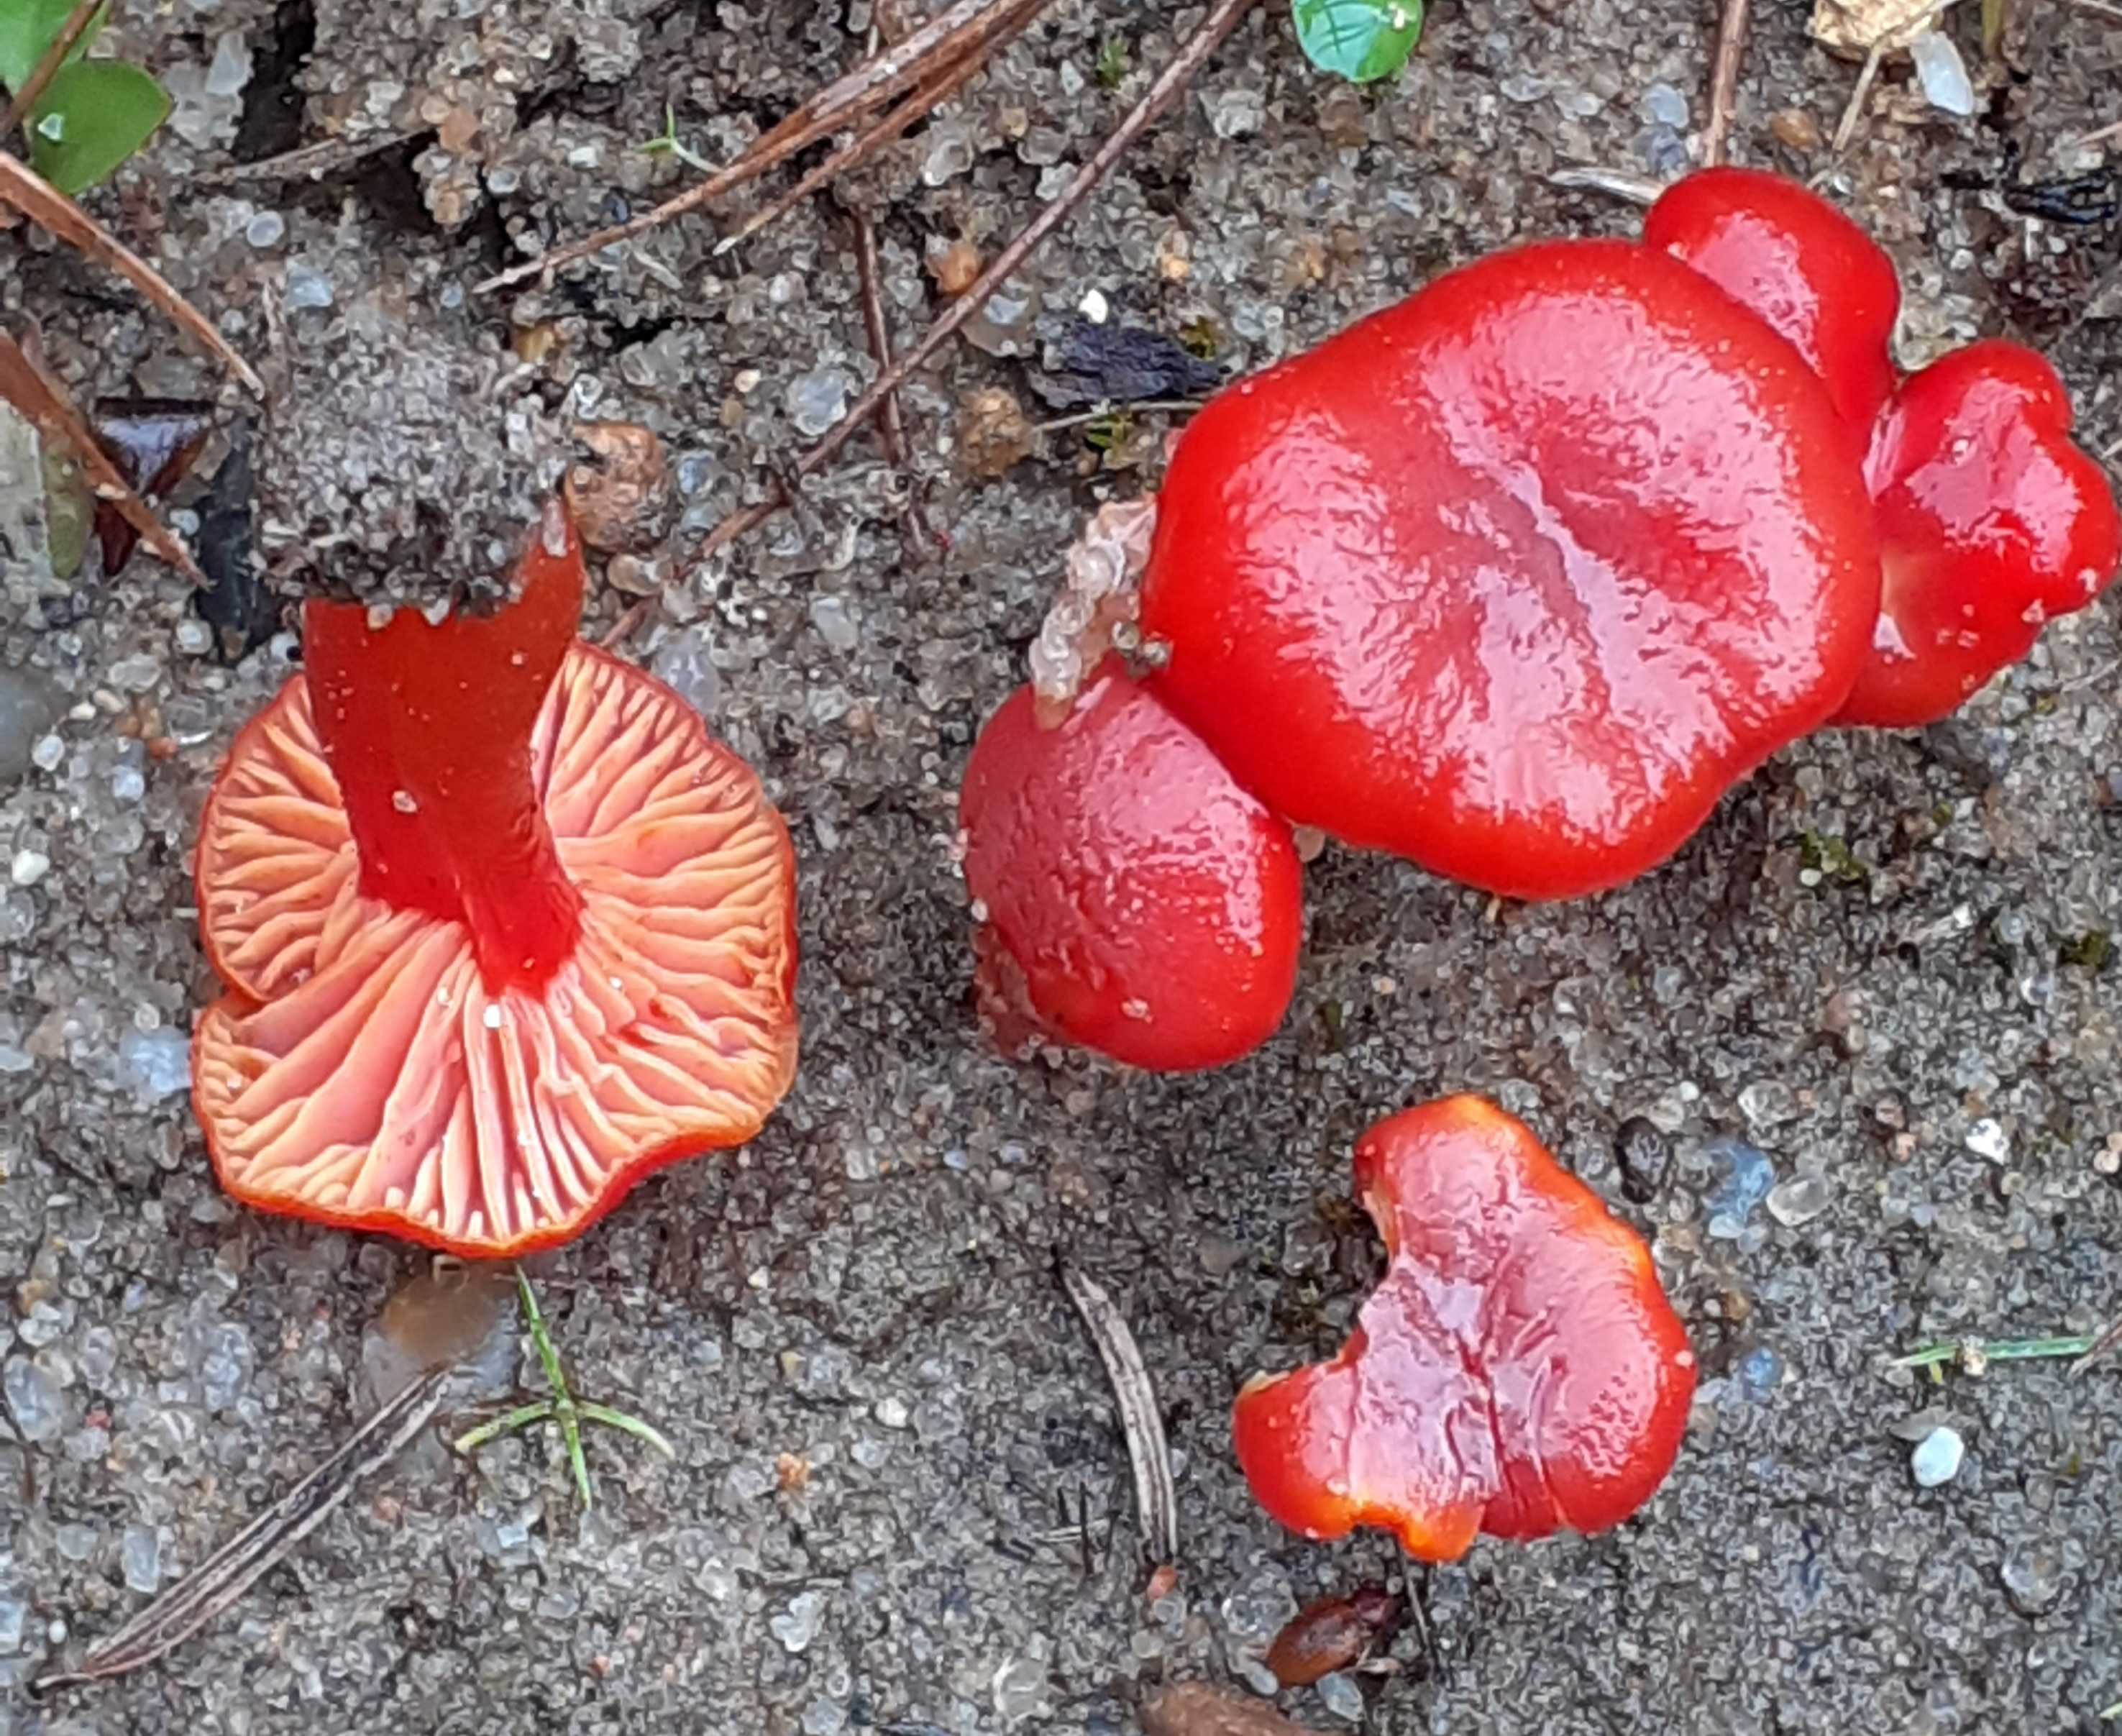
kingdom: Fungi
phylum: Basidiomycota
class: Agaricomycetes
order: Agaricales
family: Hygrophoraceae
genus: Hygrocybe
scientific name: Hygrocybe miniata
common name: mønje-vokshat
